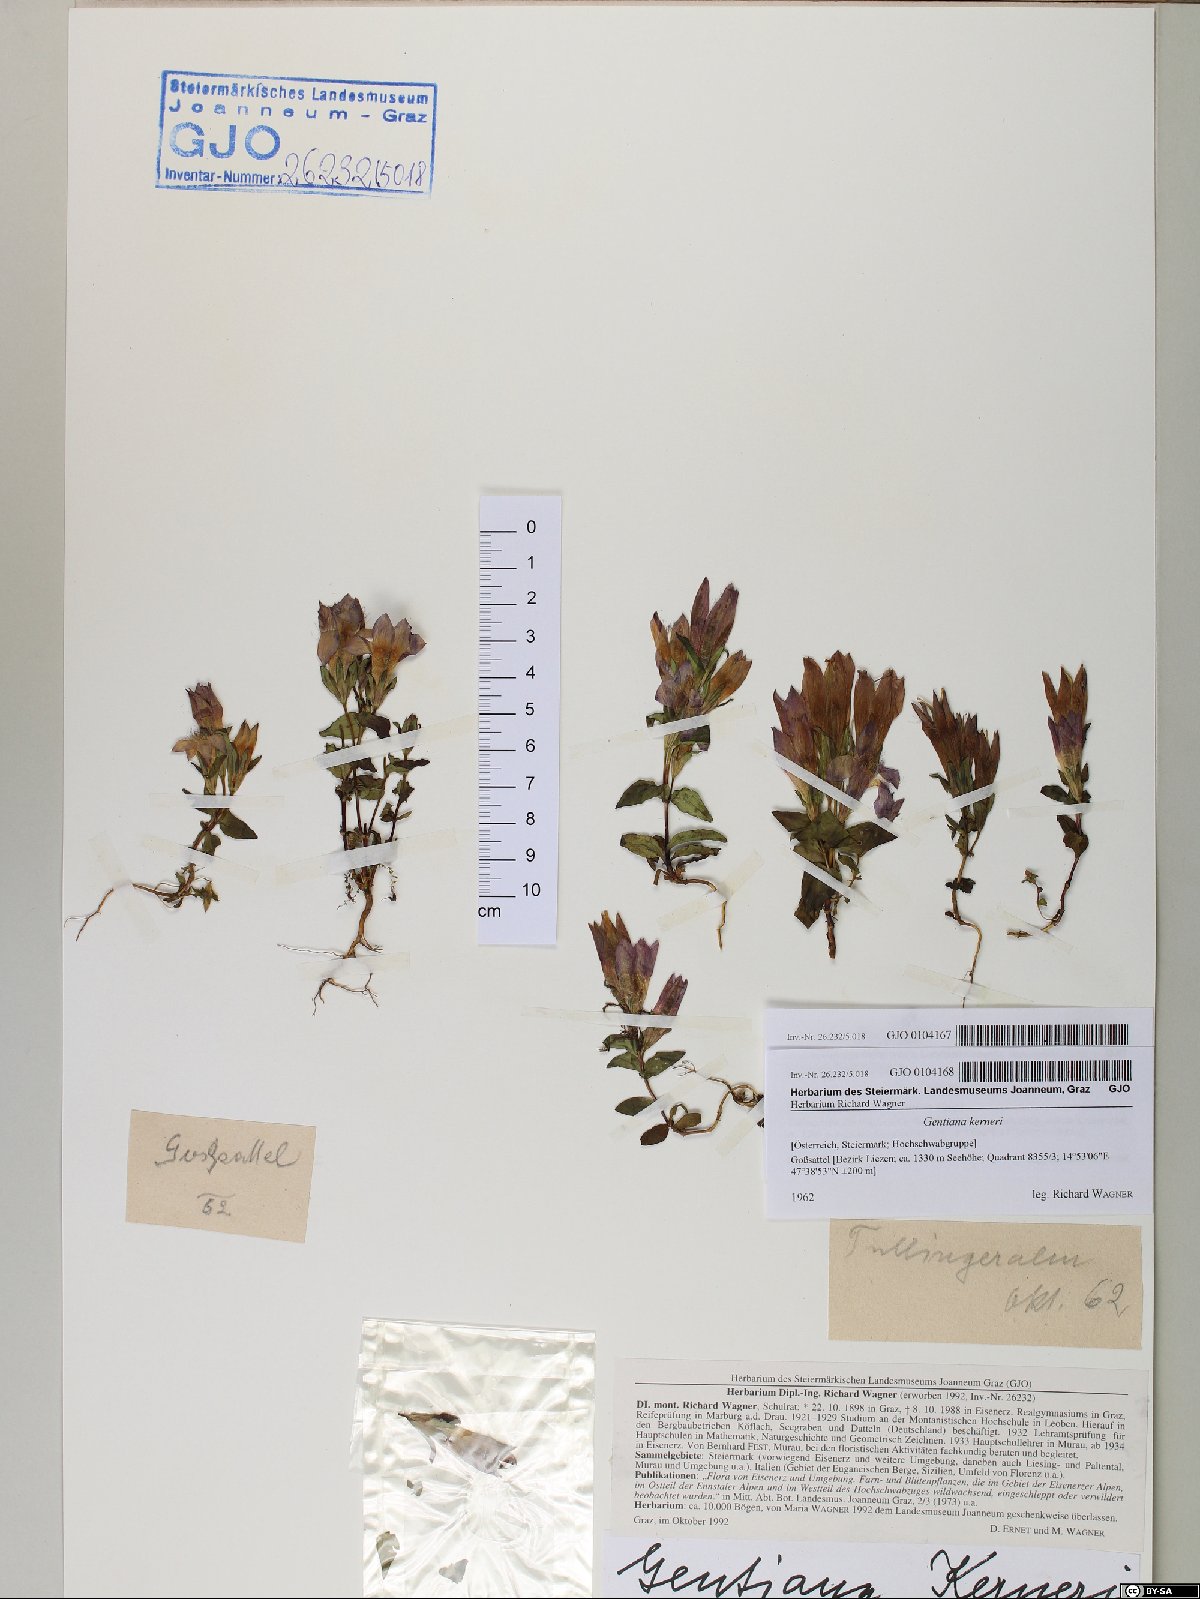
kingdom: Plantae
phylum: Tracheophyta
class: Magnoliopsida
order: Gentianales
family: Gentianaceae
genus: Gentianella
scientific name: Gentianella rhaetica
